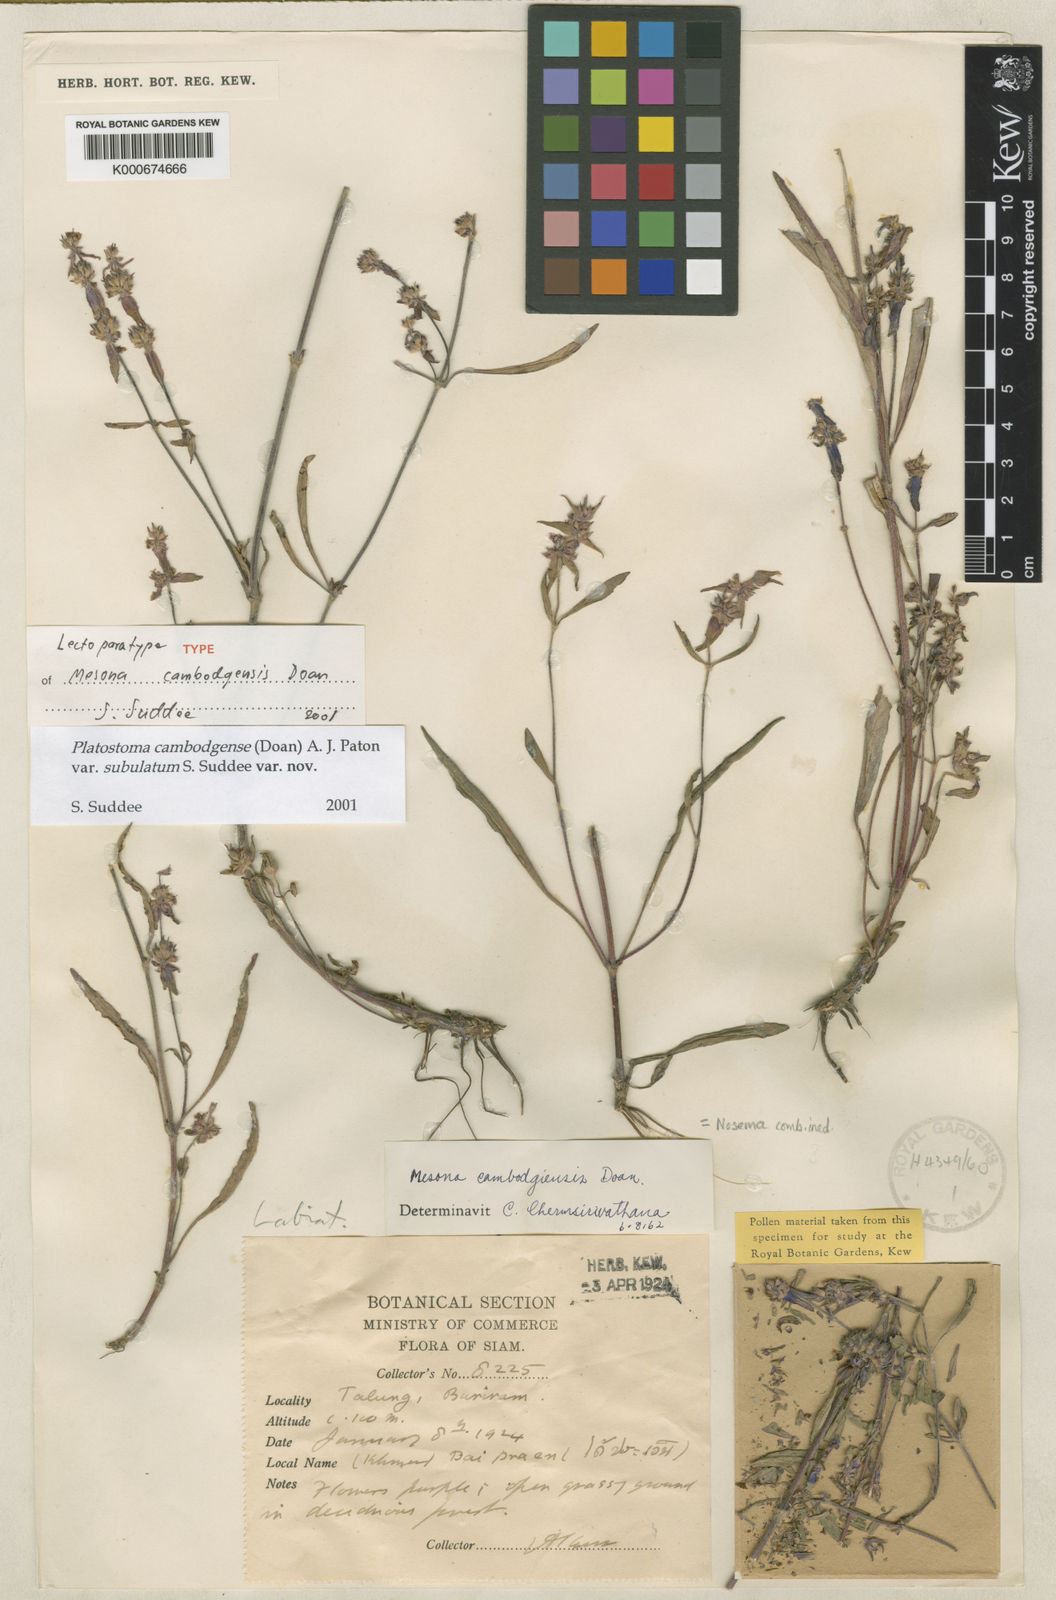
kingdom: Plantae
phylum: Tracheophyta
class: Magnoliopsida
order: Lamiales
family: Lamiaceae
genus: Platostoma
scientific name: Platostoma cambodgense
